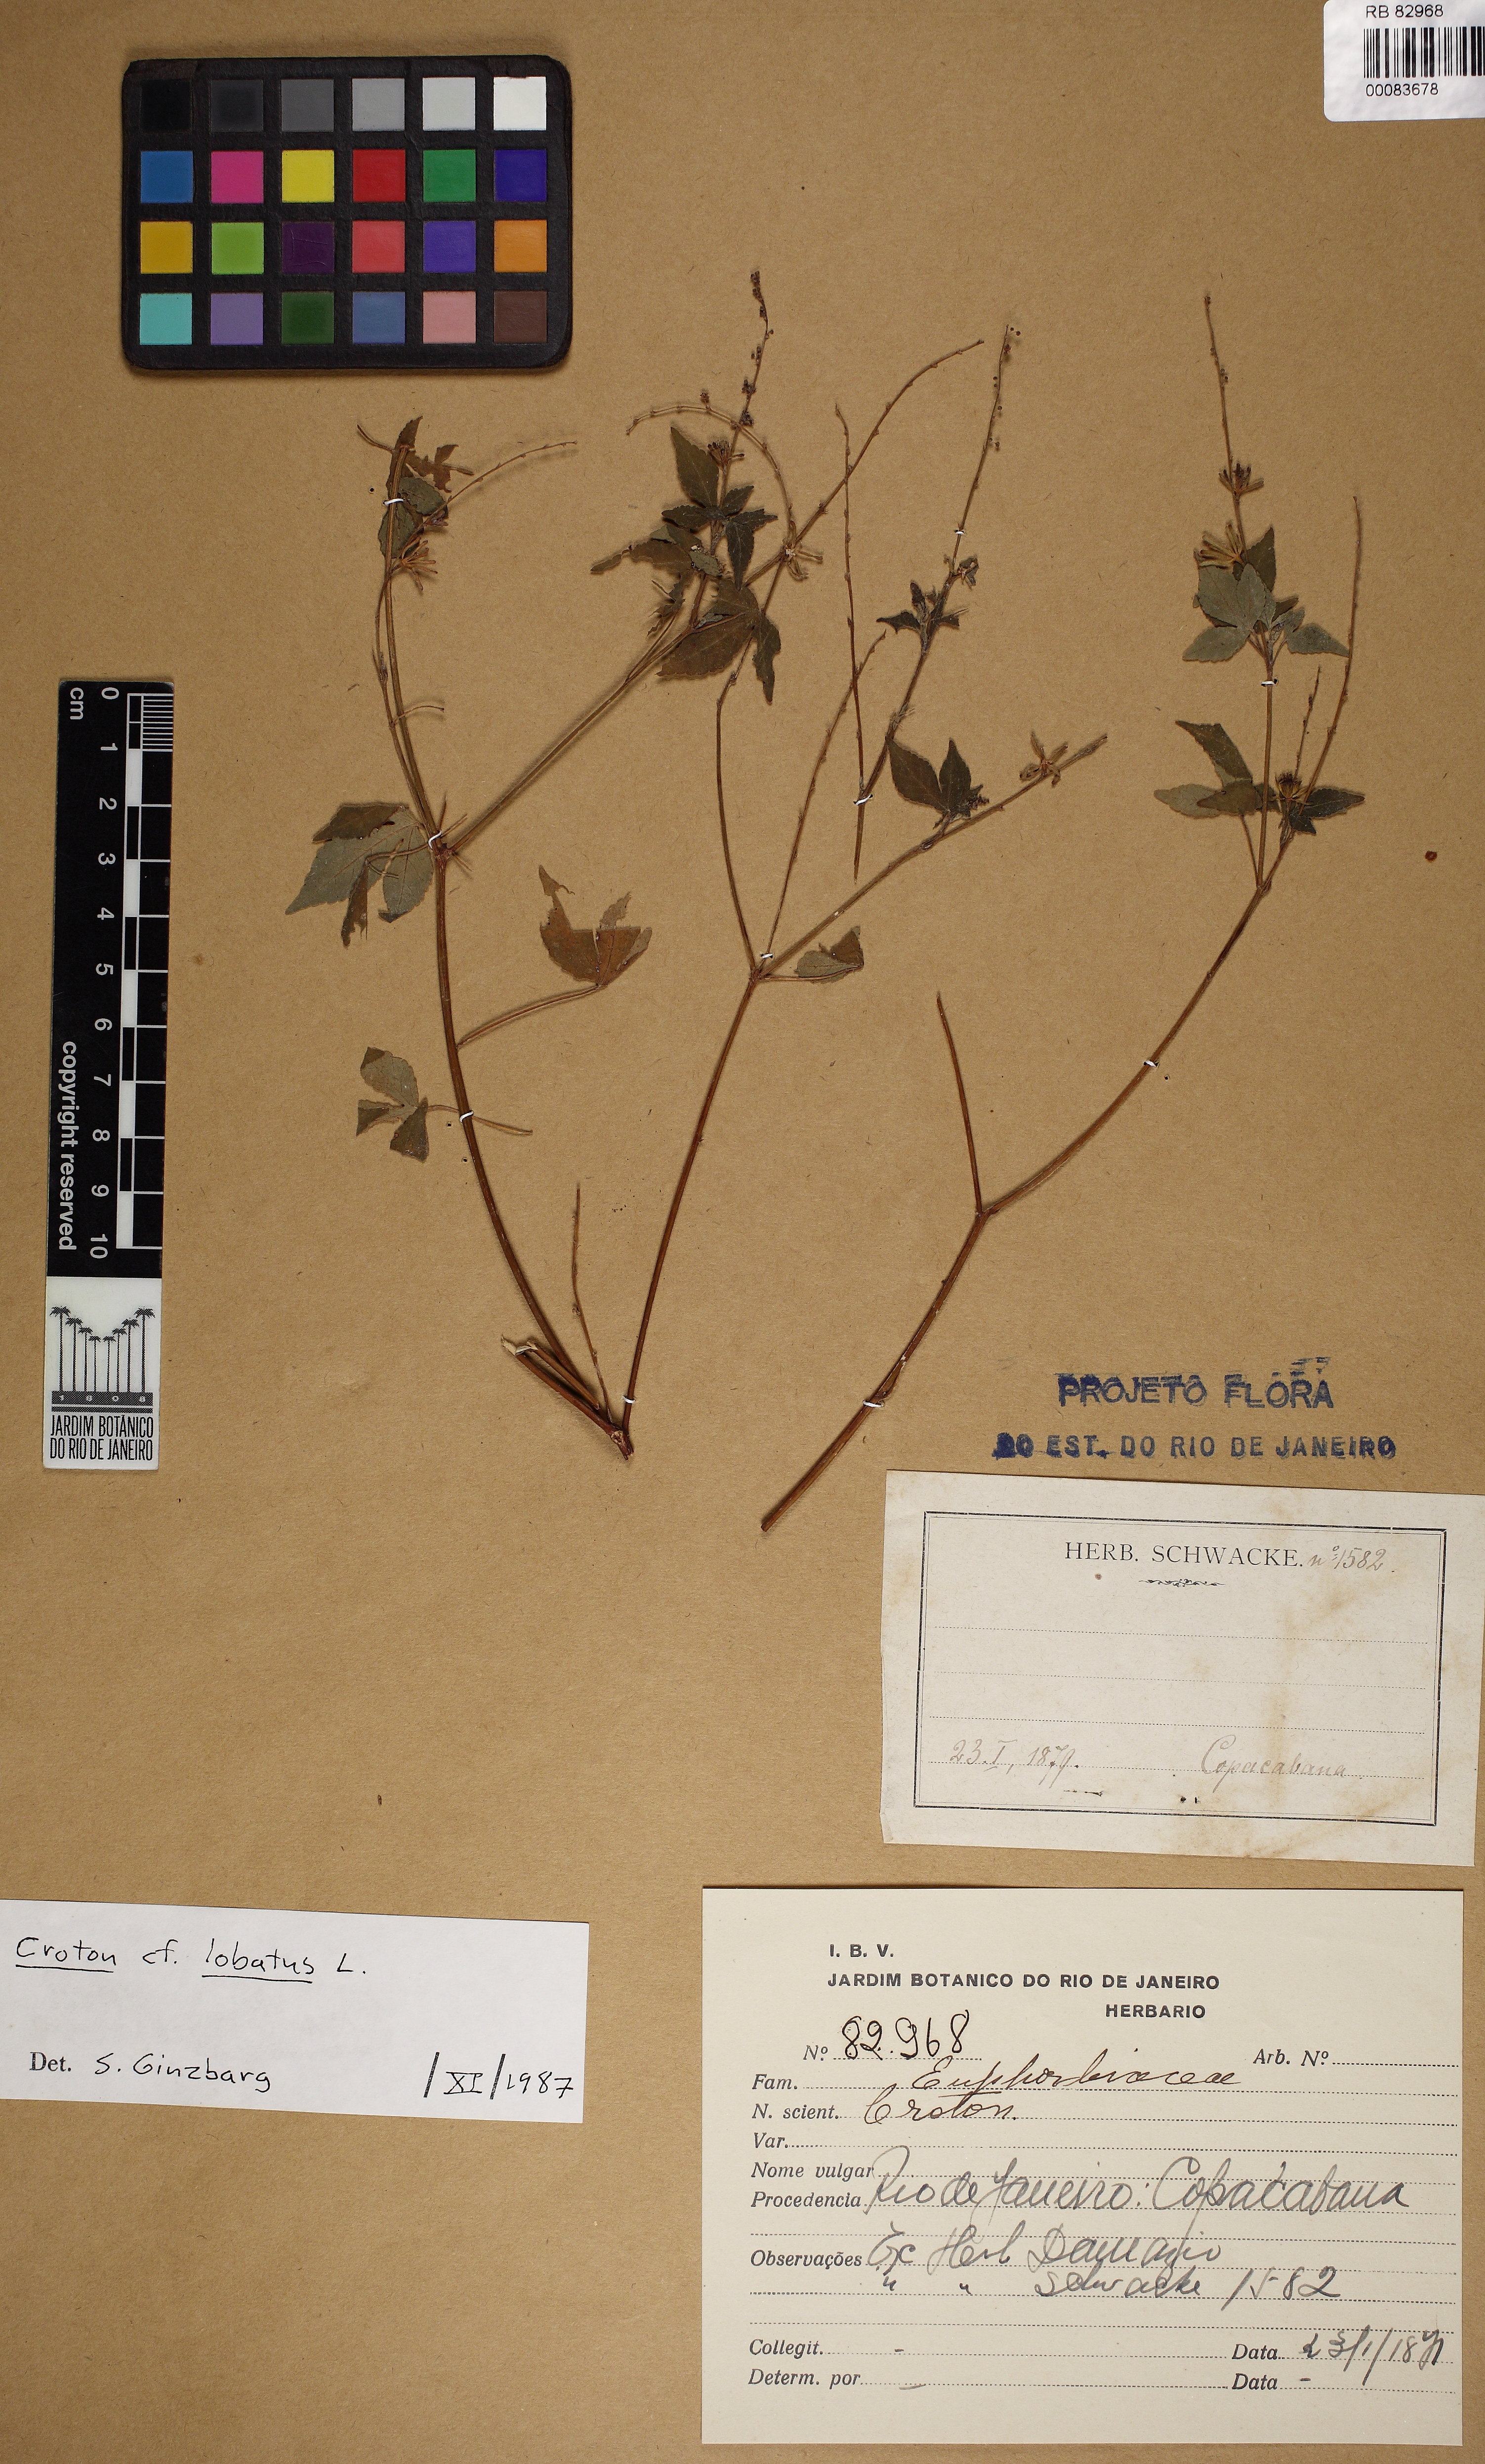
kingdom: Plantae
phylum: Tracheophyta
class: Magnoliopsida
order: Malpighiales
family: Euphorbiaceae
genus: Astraea
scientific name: Astraea gracilis
